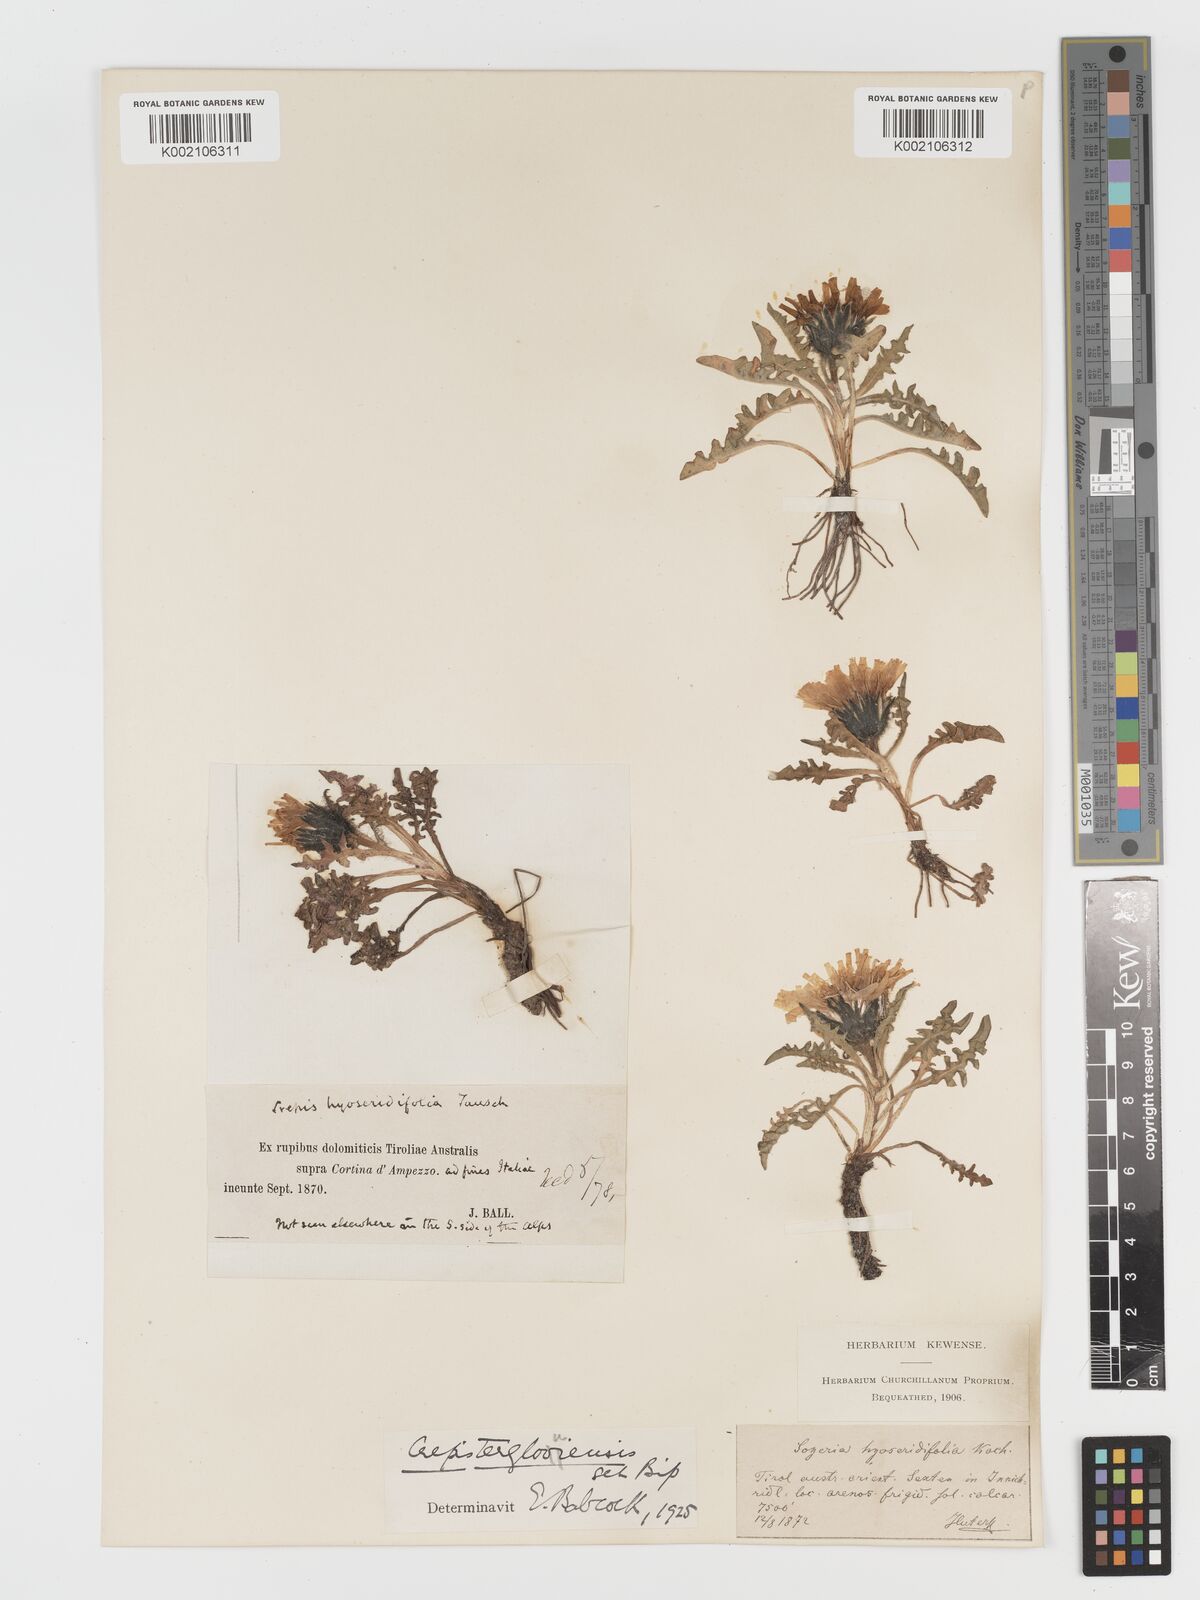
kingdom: Plantae
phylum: Tracheophyta
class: Magnoliopsida
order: Asterales
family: Asteraceae
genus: Crepis
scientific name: Crepis terglouensis
